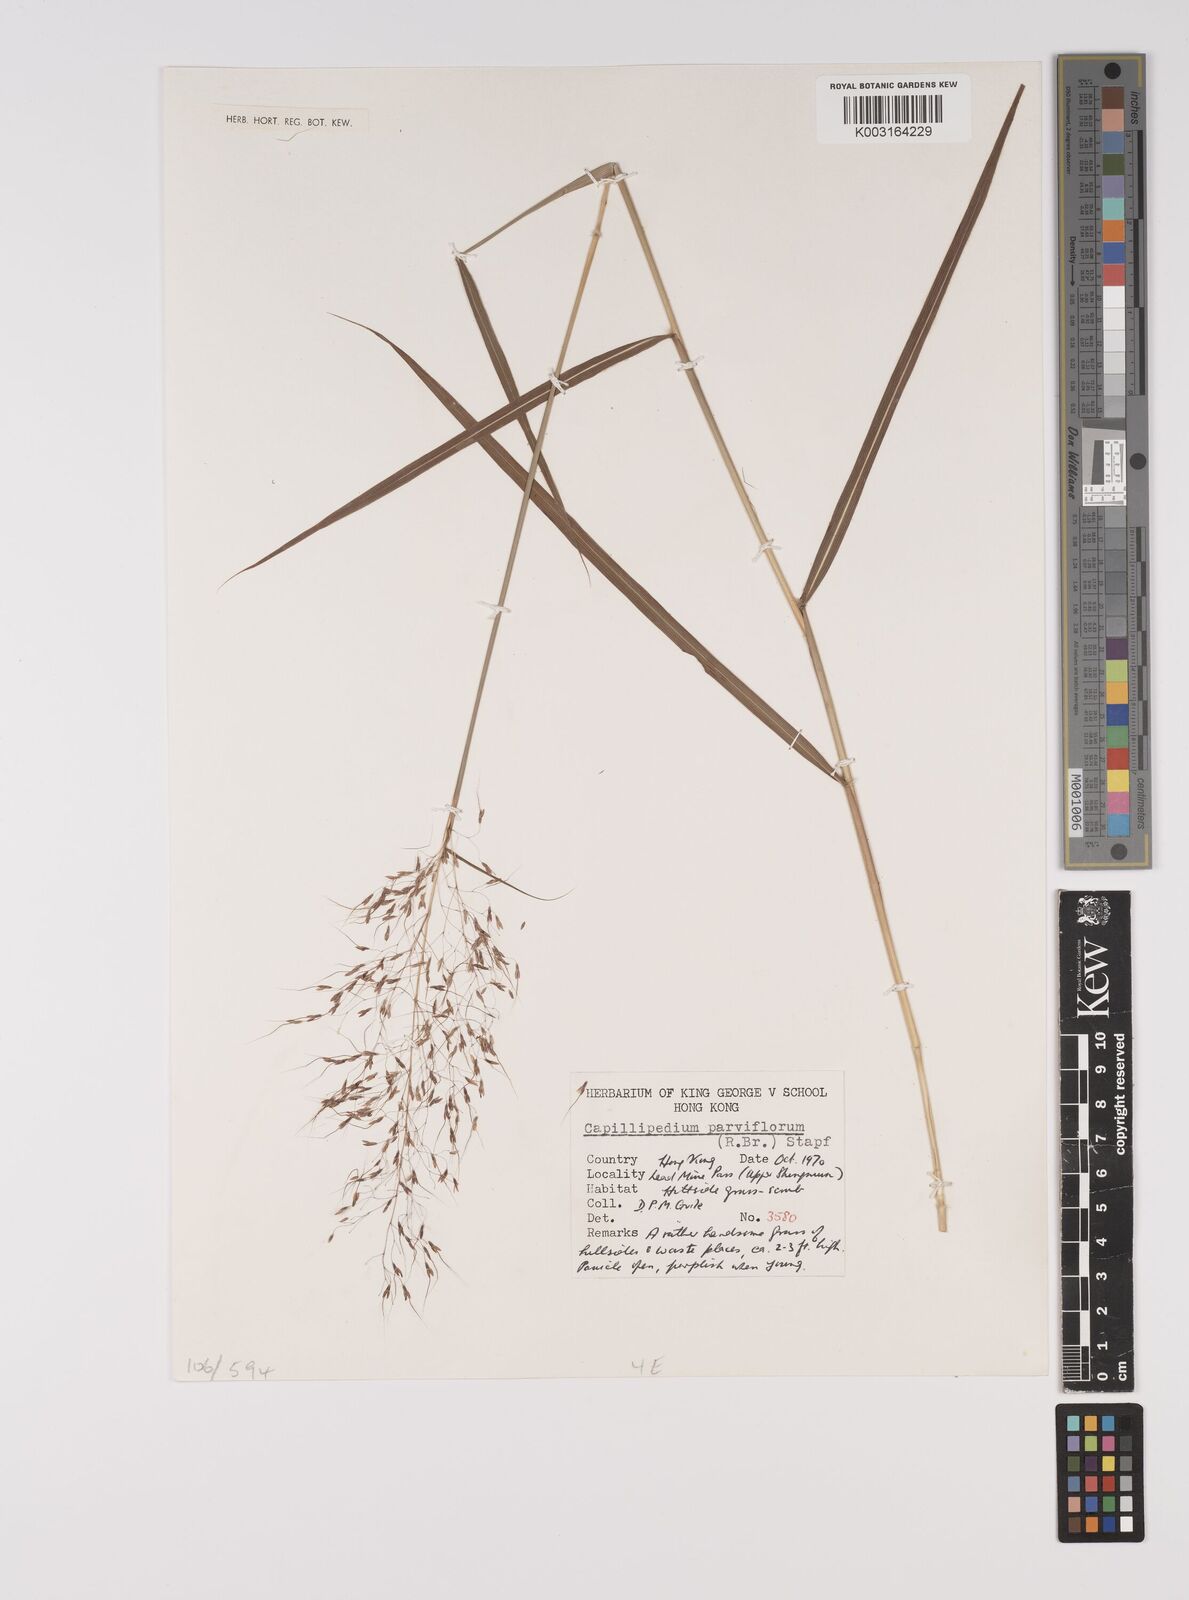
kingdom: Plantae
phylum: Tracheophyta
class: Liliopsida
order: Poales
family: Poaceae
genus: Capillipedium
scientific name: Capillipedium parviflorum
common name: Golden-beard
